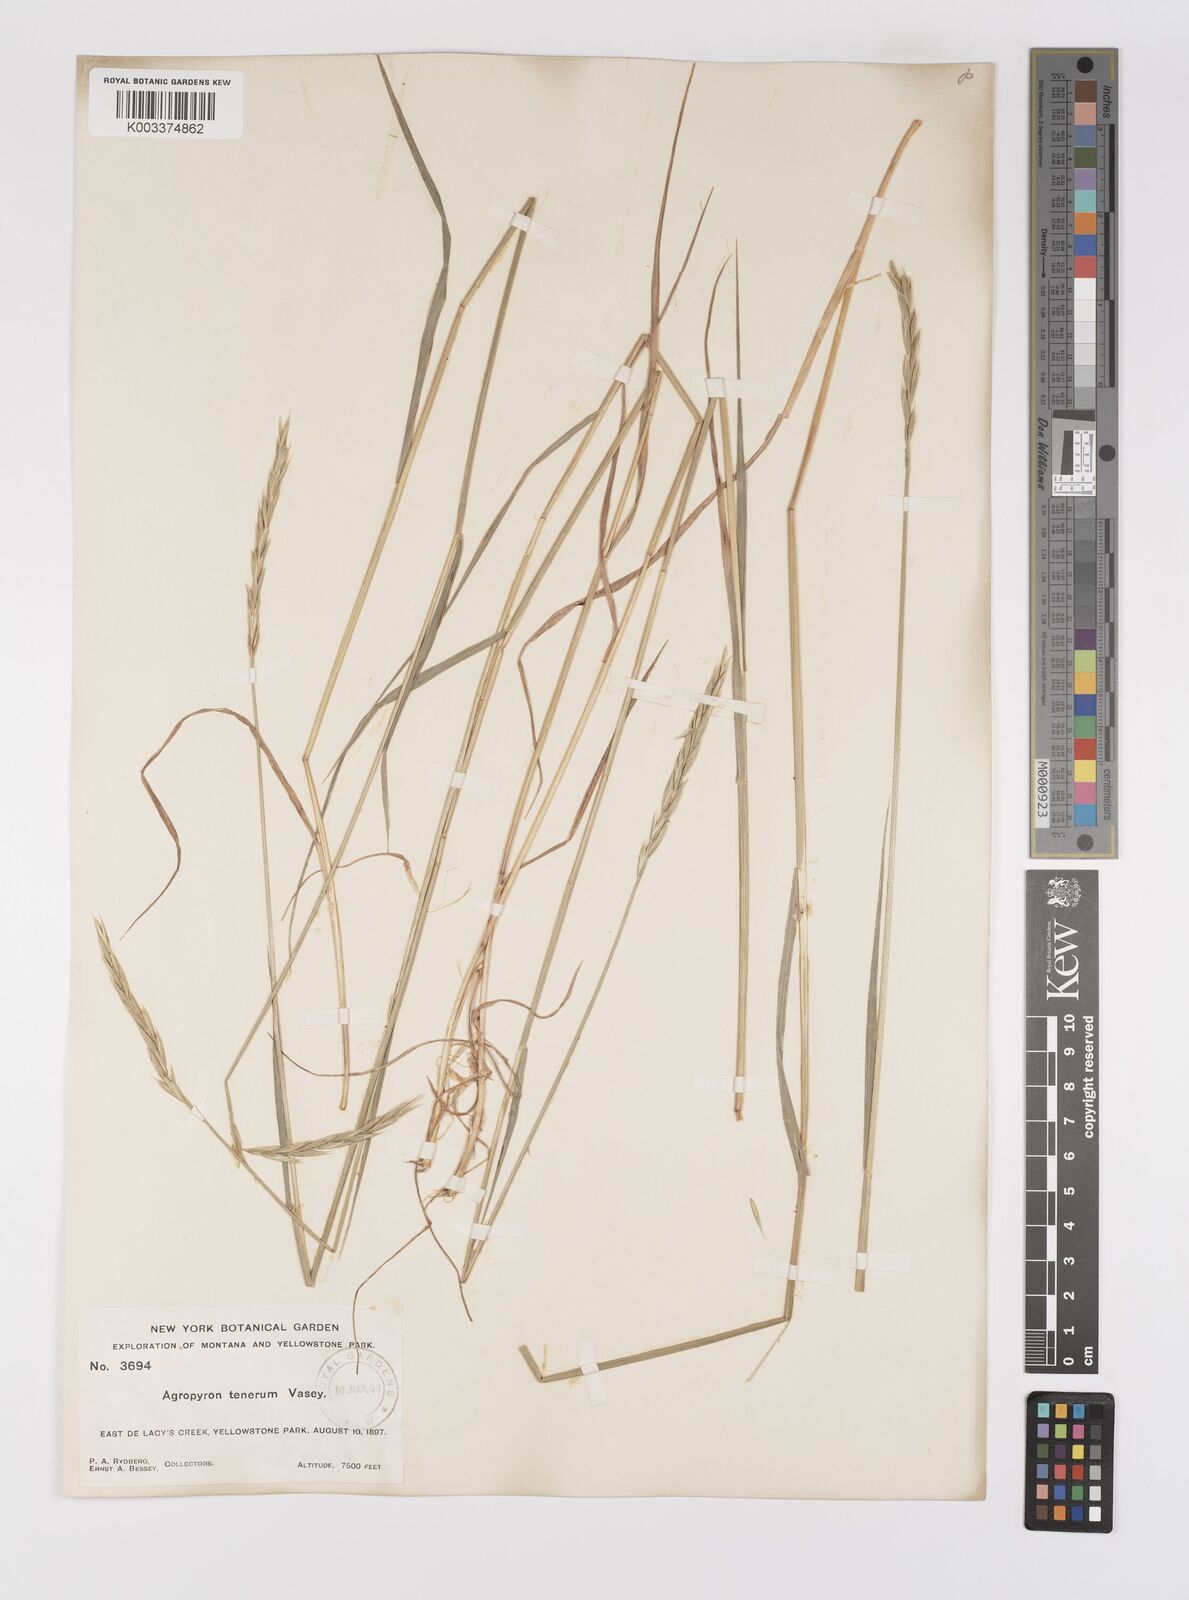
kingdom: Plantae
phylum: Tracheophyta
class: Liliopsida
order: Poales
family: Poaceae
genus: Elymus
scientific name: Elymus violaceus
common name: Arctic wheatgrass
